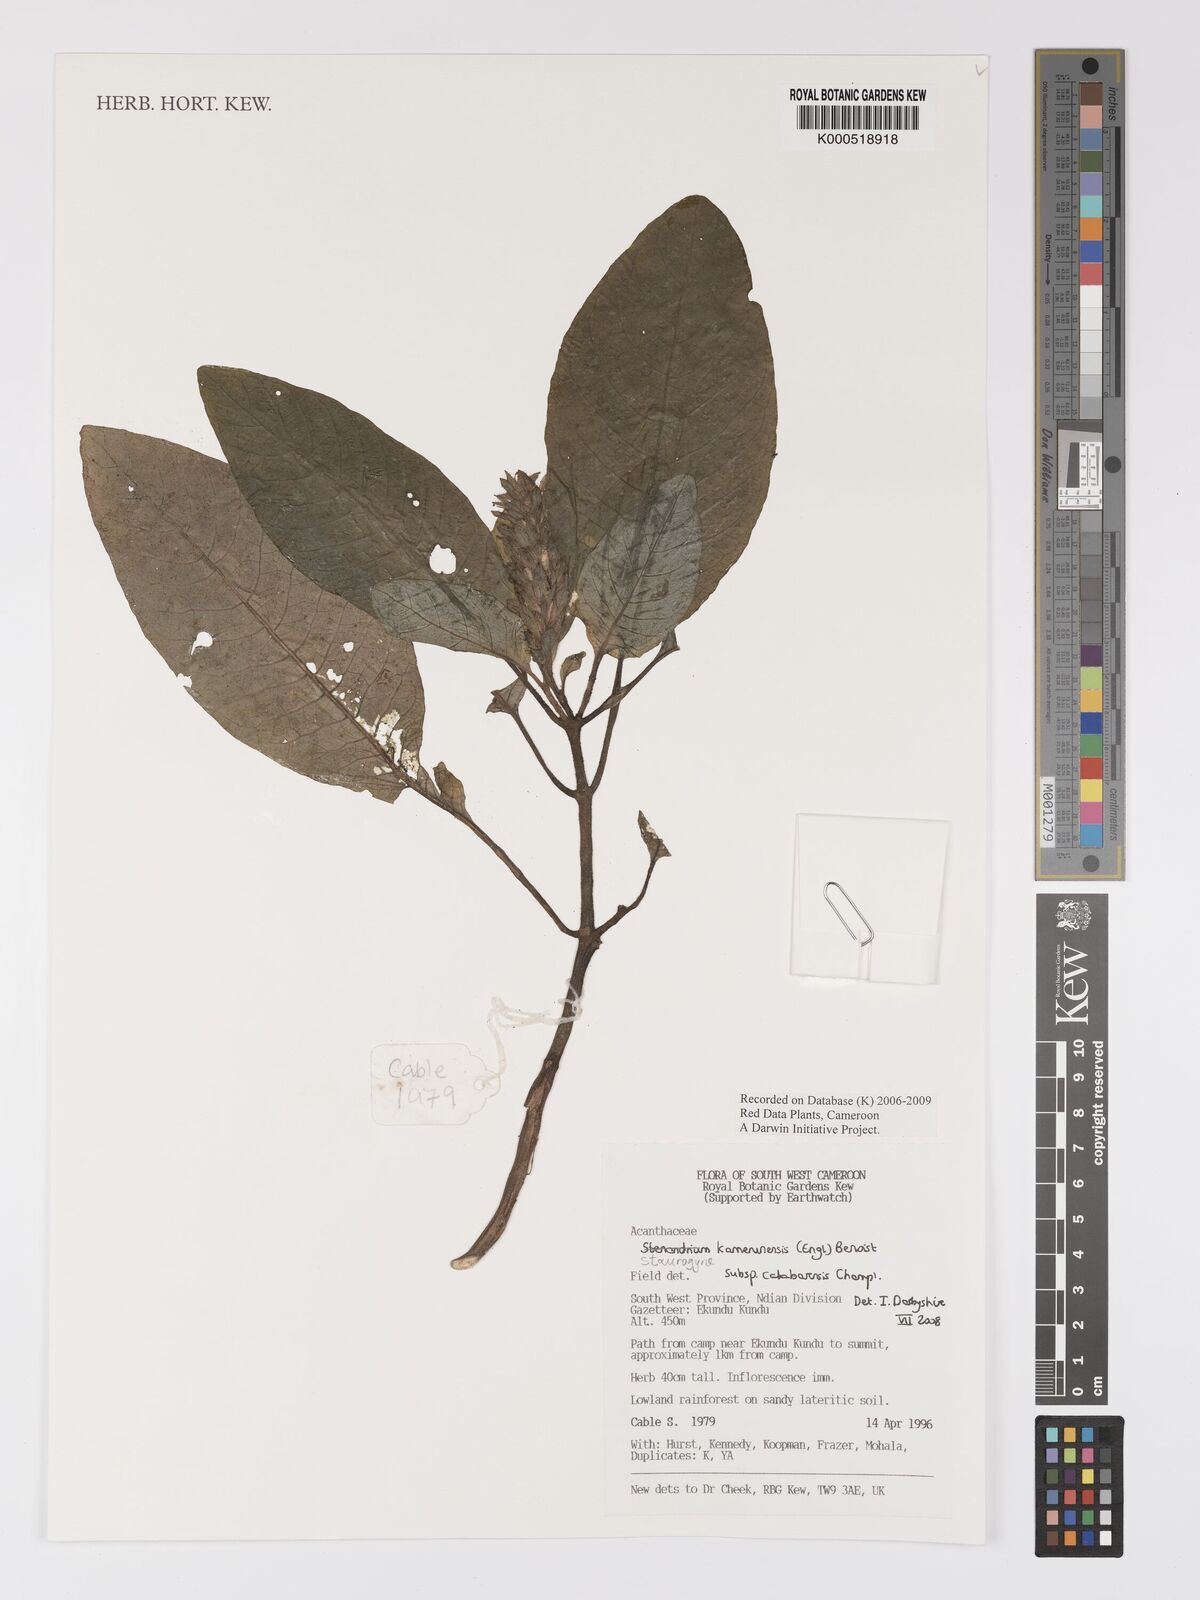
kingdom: Plantae
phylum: Tracheophyta
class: Magnoliopsida
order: Lamiales
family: Acanthaceae
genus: Staurogyne
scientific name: Staurogyne kamerunensis
